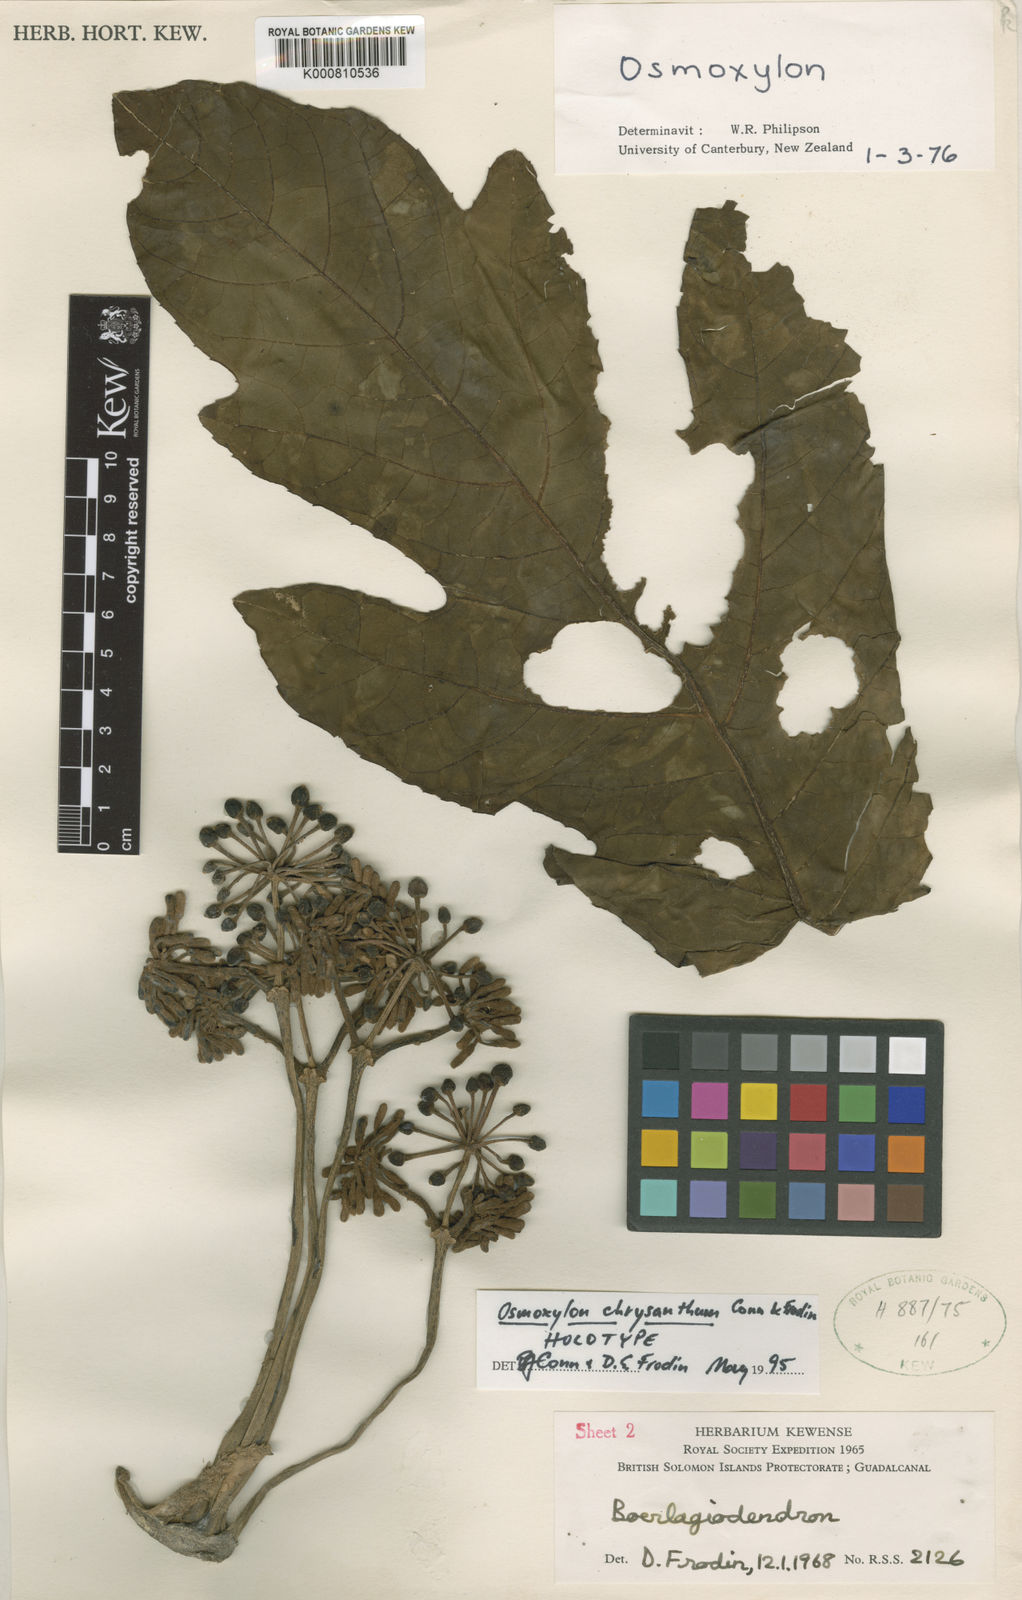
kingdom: Plantae
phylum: Tracheophyta
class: Magnoliopsida
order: Apiales
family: Araliaceae
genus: Osmoxylon
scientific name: Osmoxylon chrysanthum
